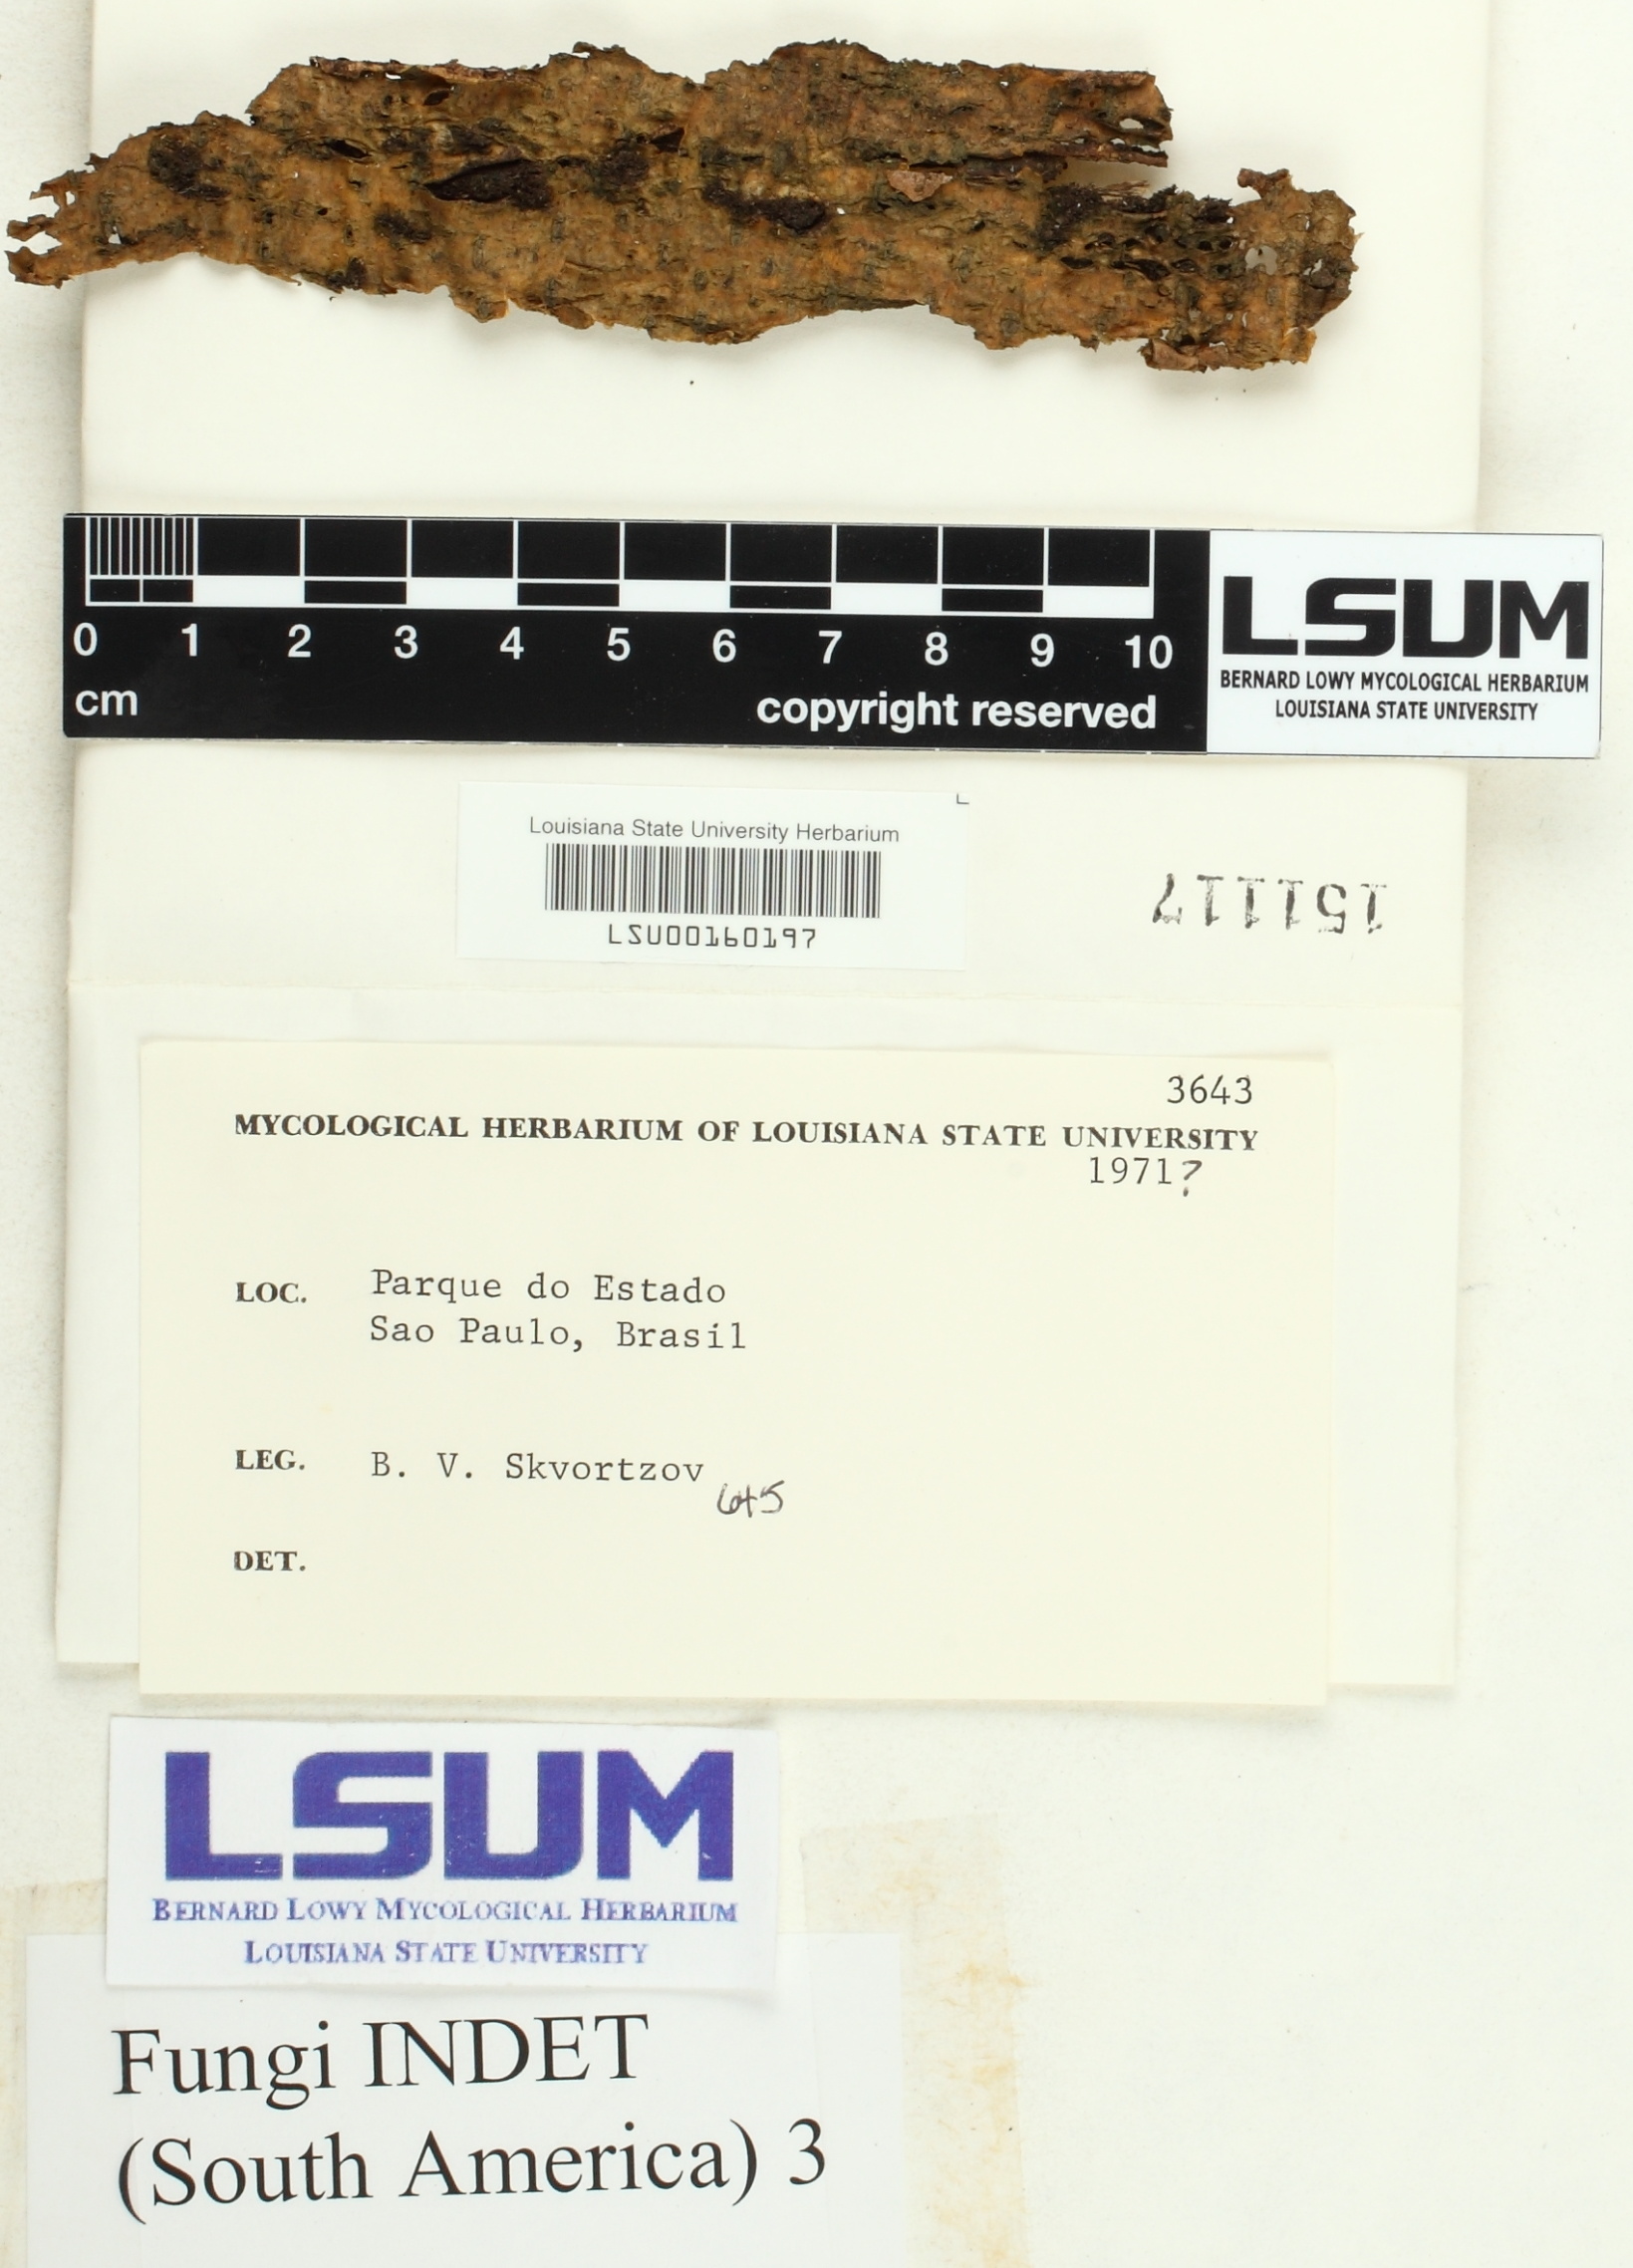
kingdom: Fungi
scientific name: Fungi
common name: Fungi
